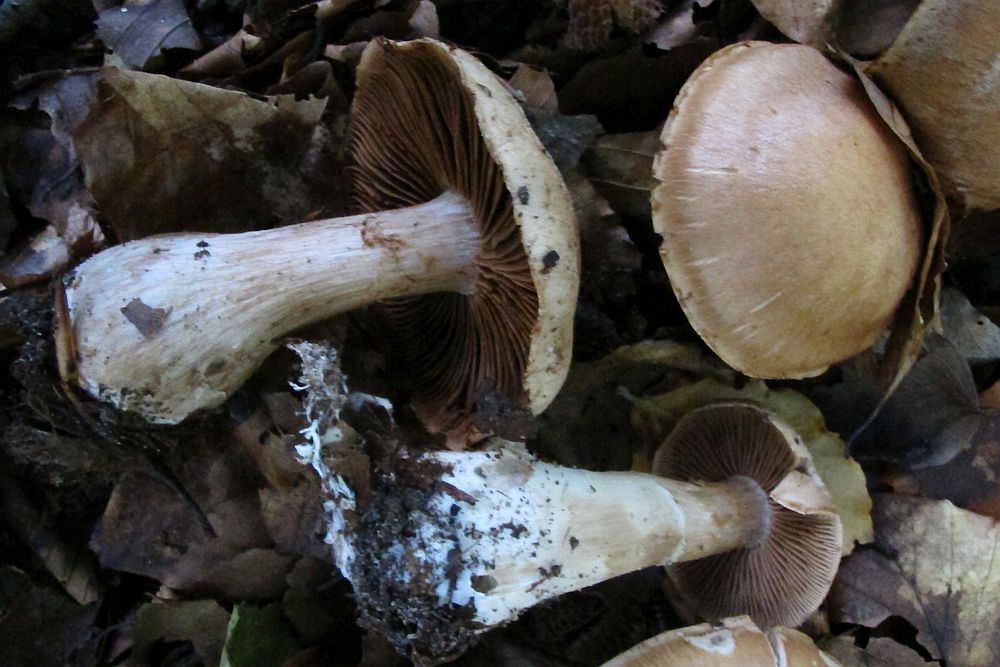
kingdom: Fungi
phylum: Basidiomycota
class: Agaricomycetes
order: Agaricales
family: Cortinariaceae
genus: Cortinarius
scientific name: Cortinarius torvus
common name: champignonagtig slørhat
